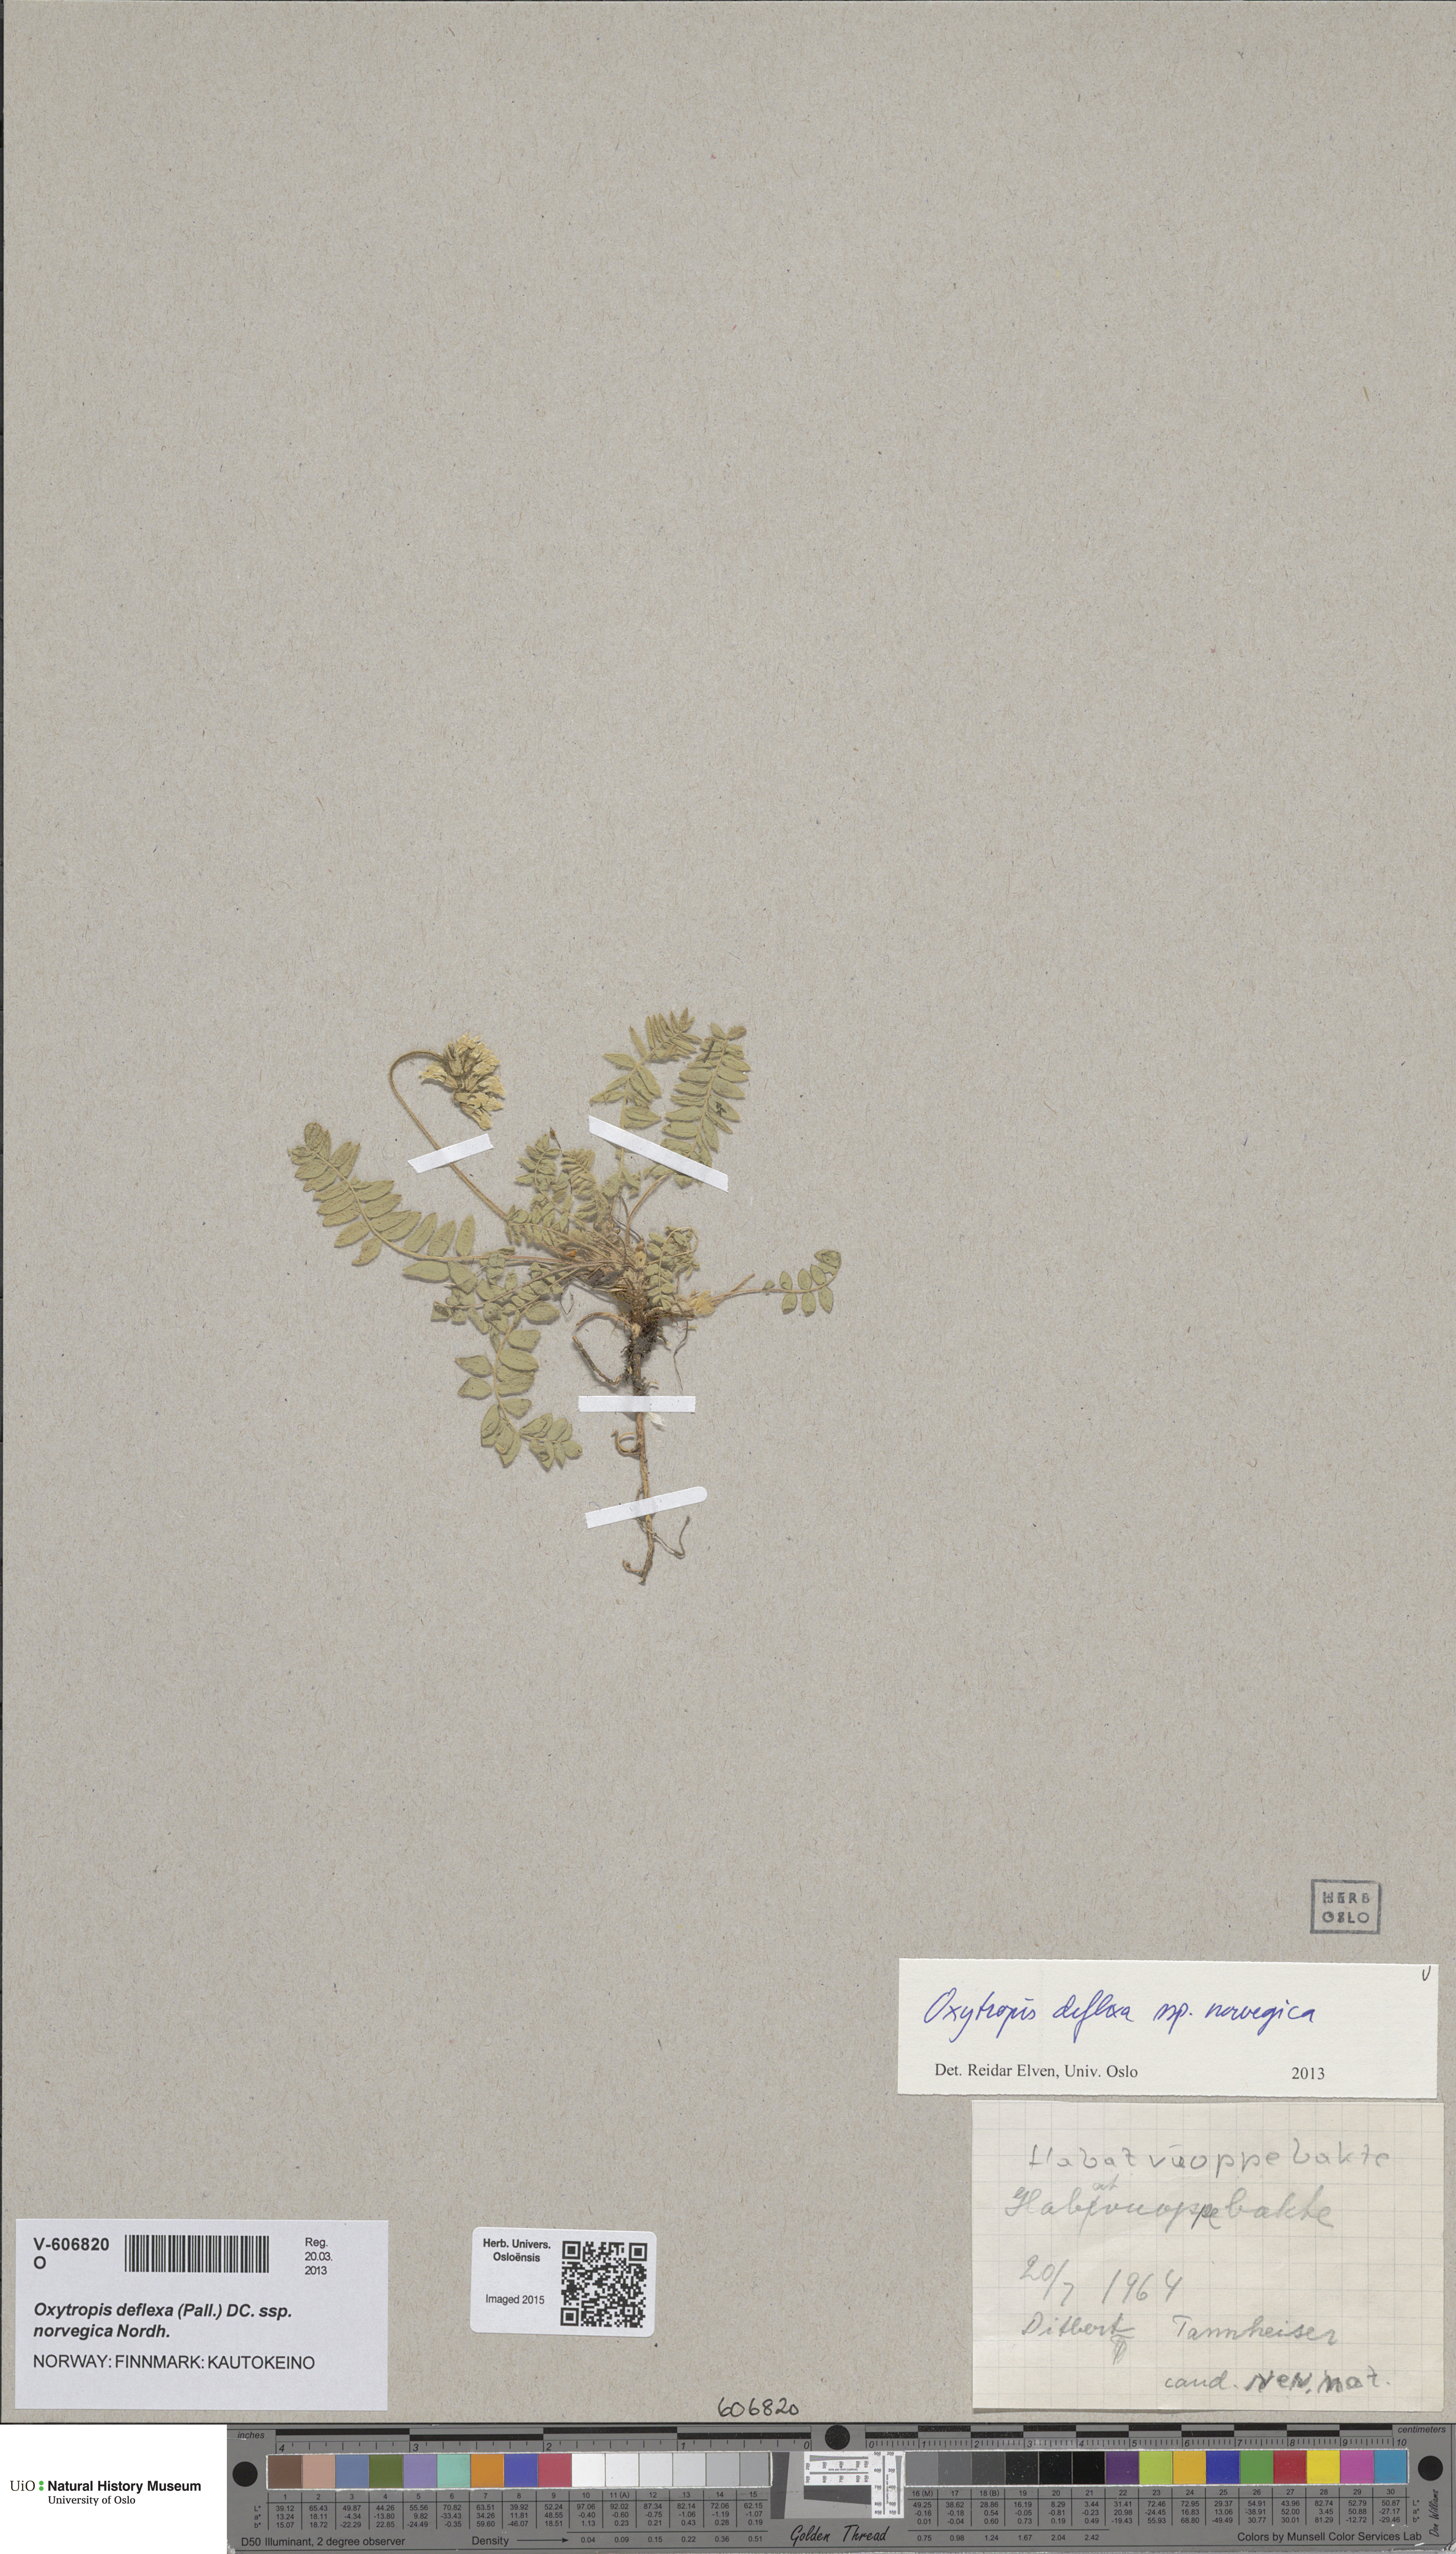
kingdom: Plantae
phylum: Tracheophyta
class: Magnoliopsida
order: Fabales
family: Fabaceae
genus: Oxytropis
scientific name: Oxytropis deflexa
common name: Stemmed oxytrope
